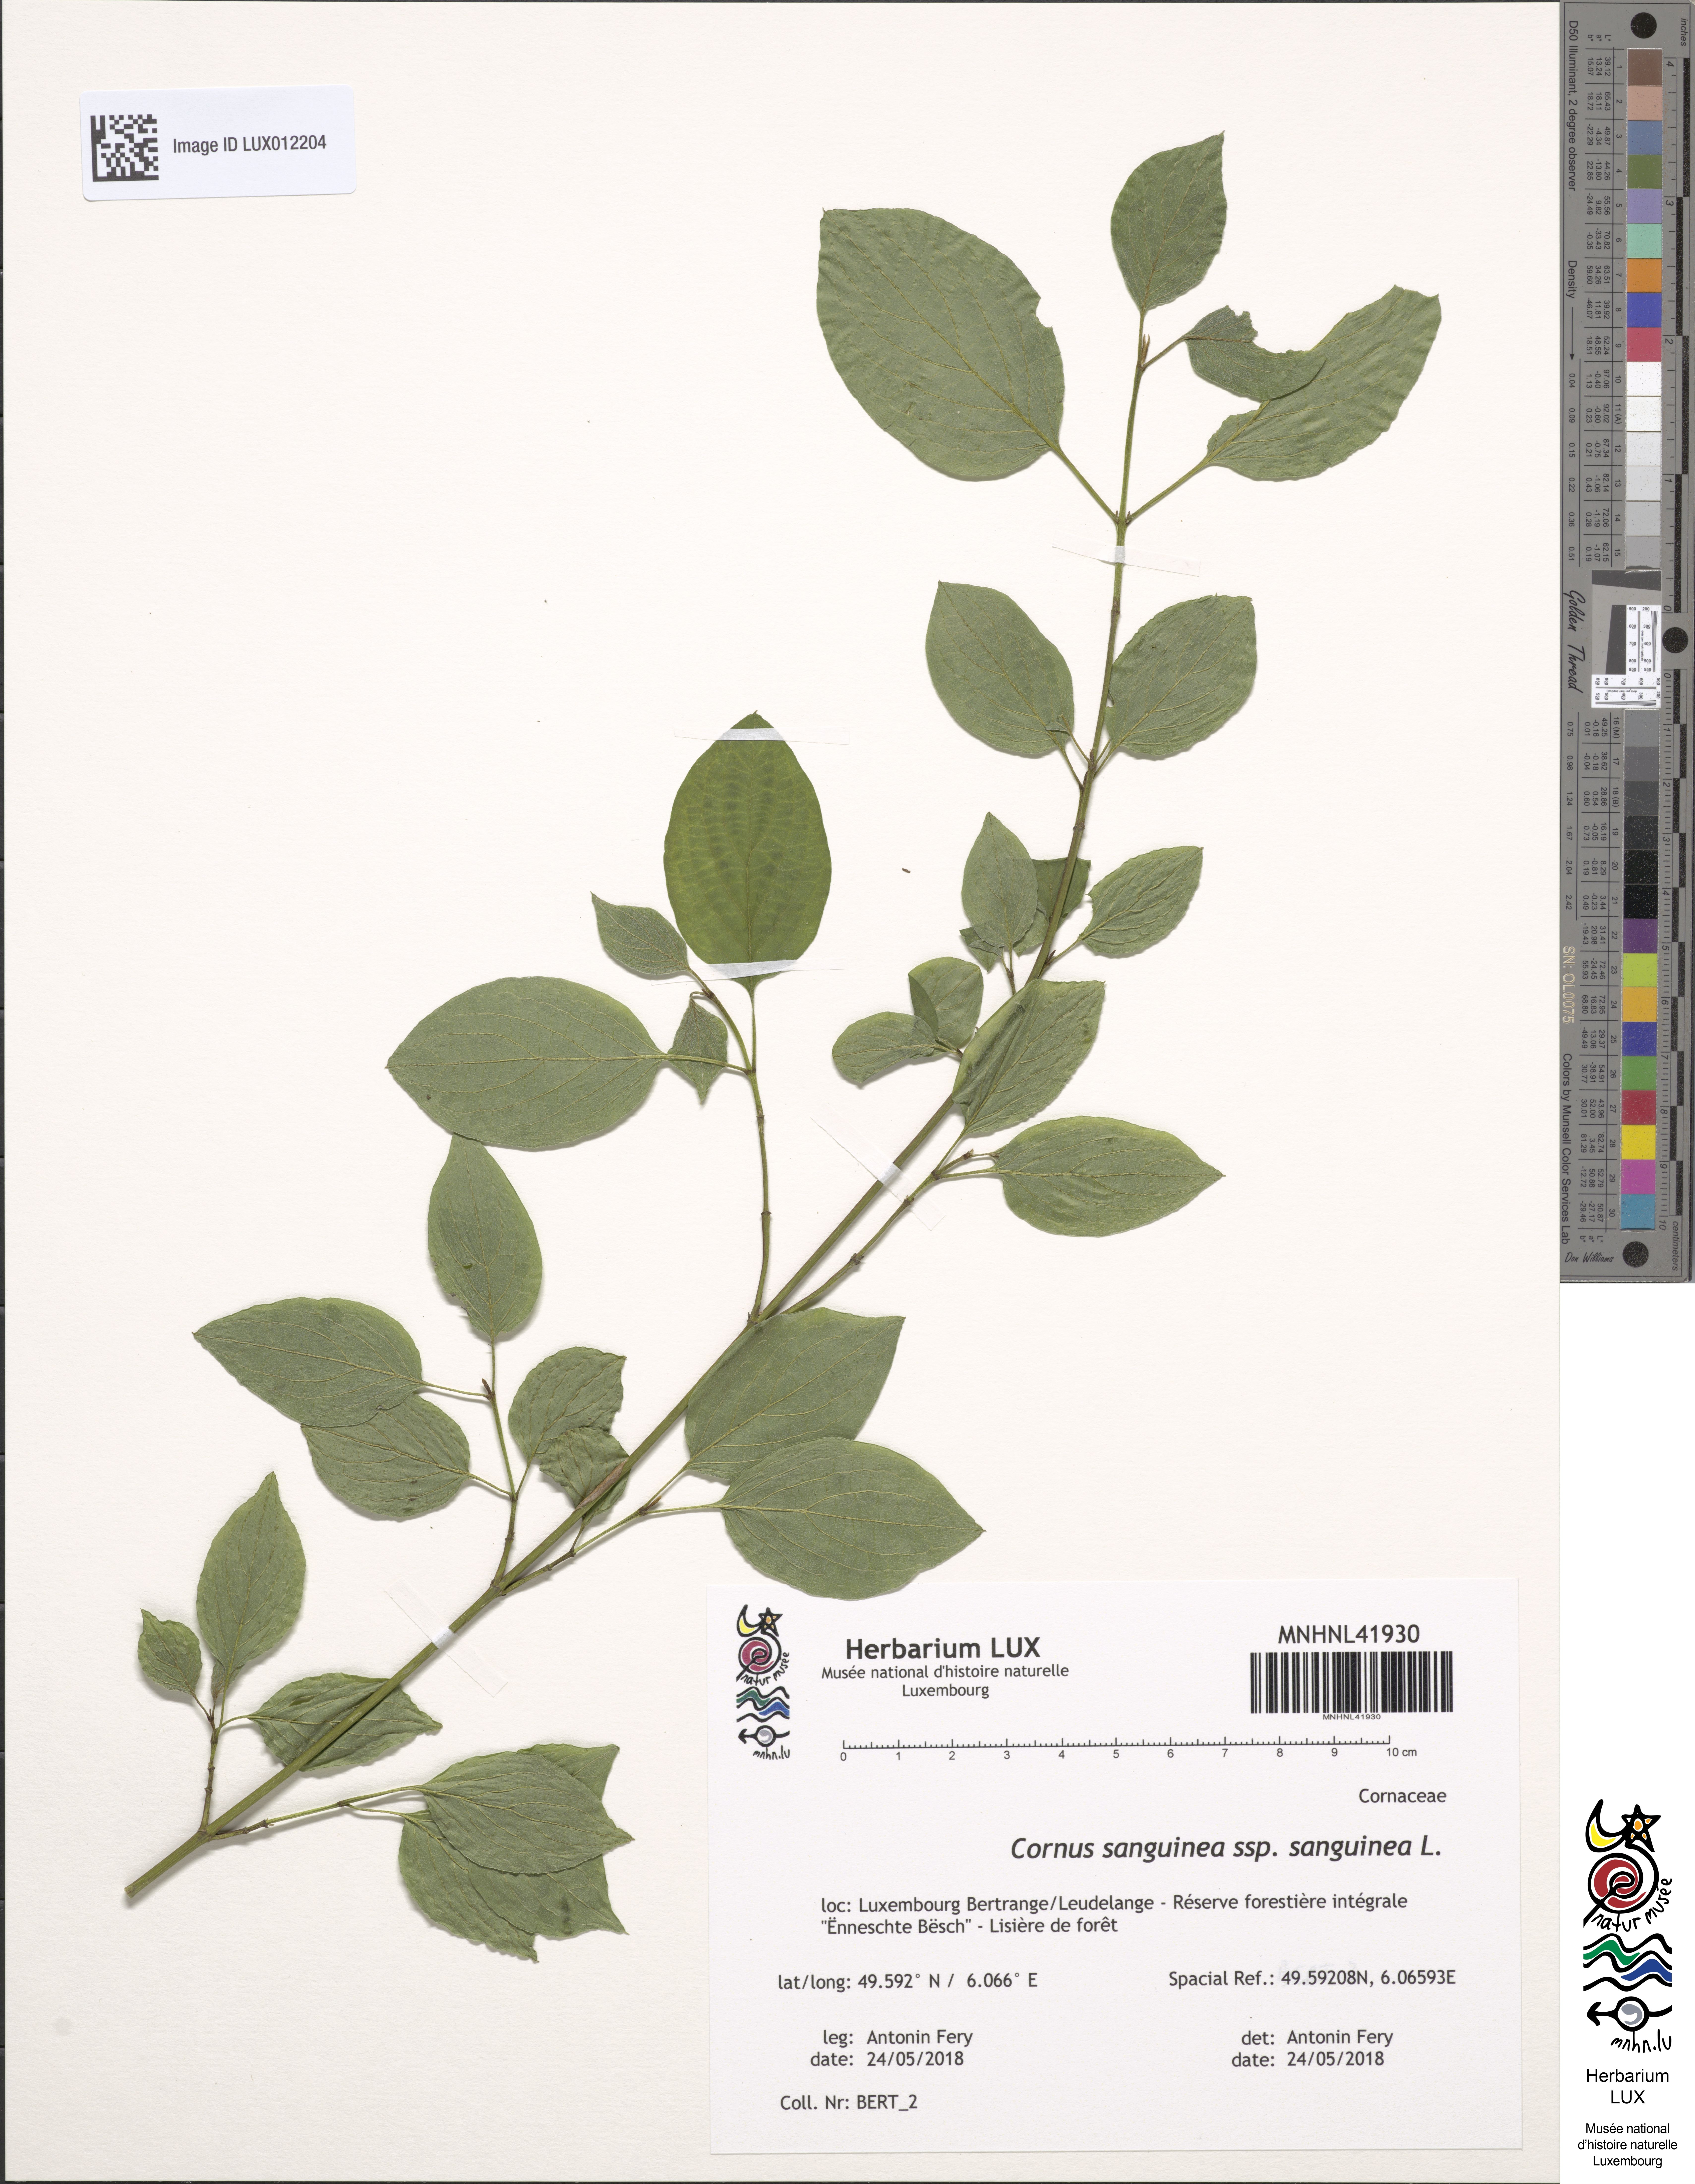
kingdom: Plantae
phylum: Tracheophyta
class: Magnoliopsida
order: Cornales
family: Cornaceae
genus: Cornus
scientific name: Cornus sanguinea
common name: Dogwood
